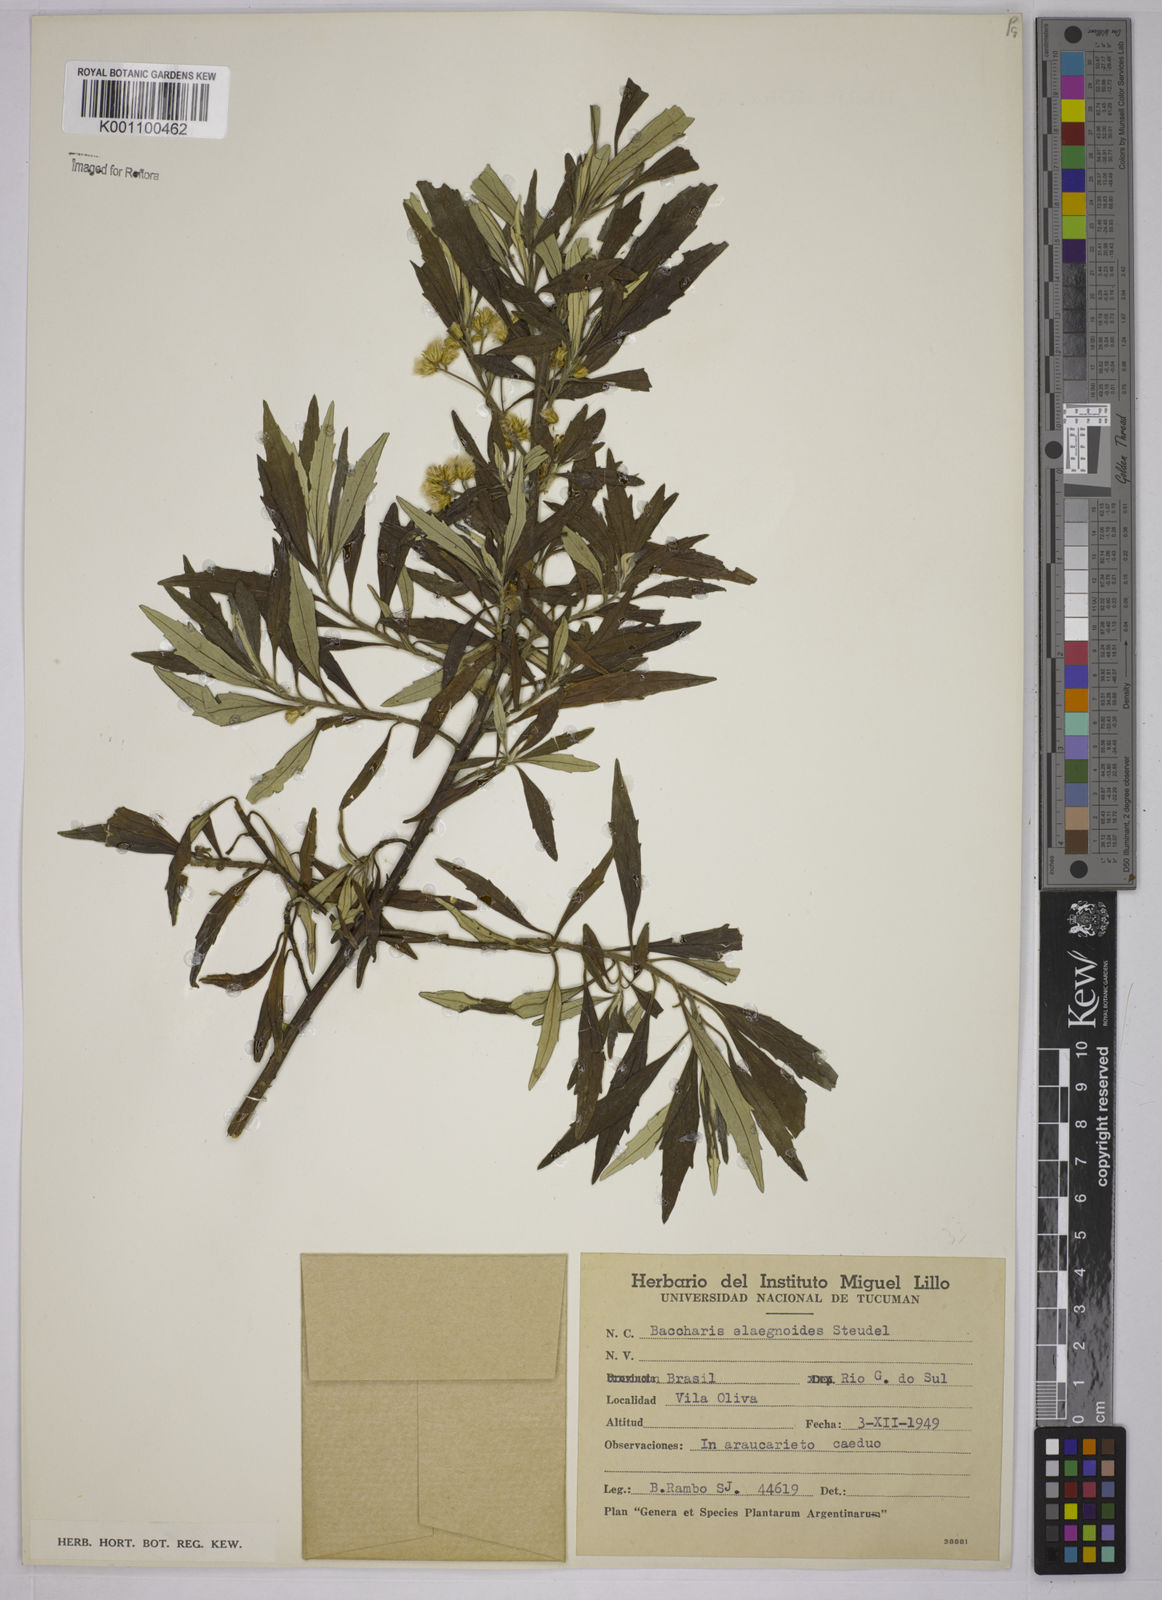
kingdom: Plantae
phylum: Tracheophyta
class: Magnoliopsida
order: Asterales
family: Asteraceae
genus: Baccharis
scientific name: Baccharis
